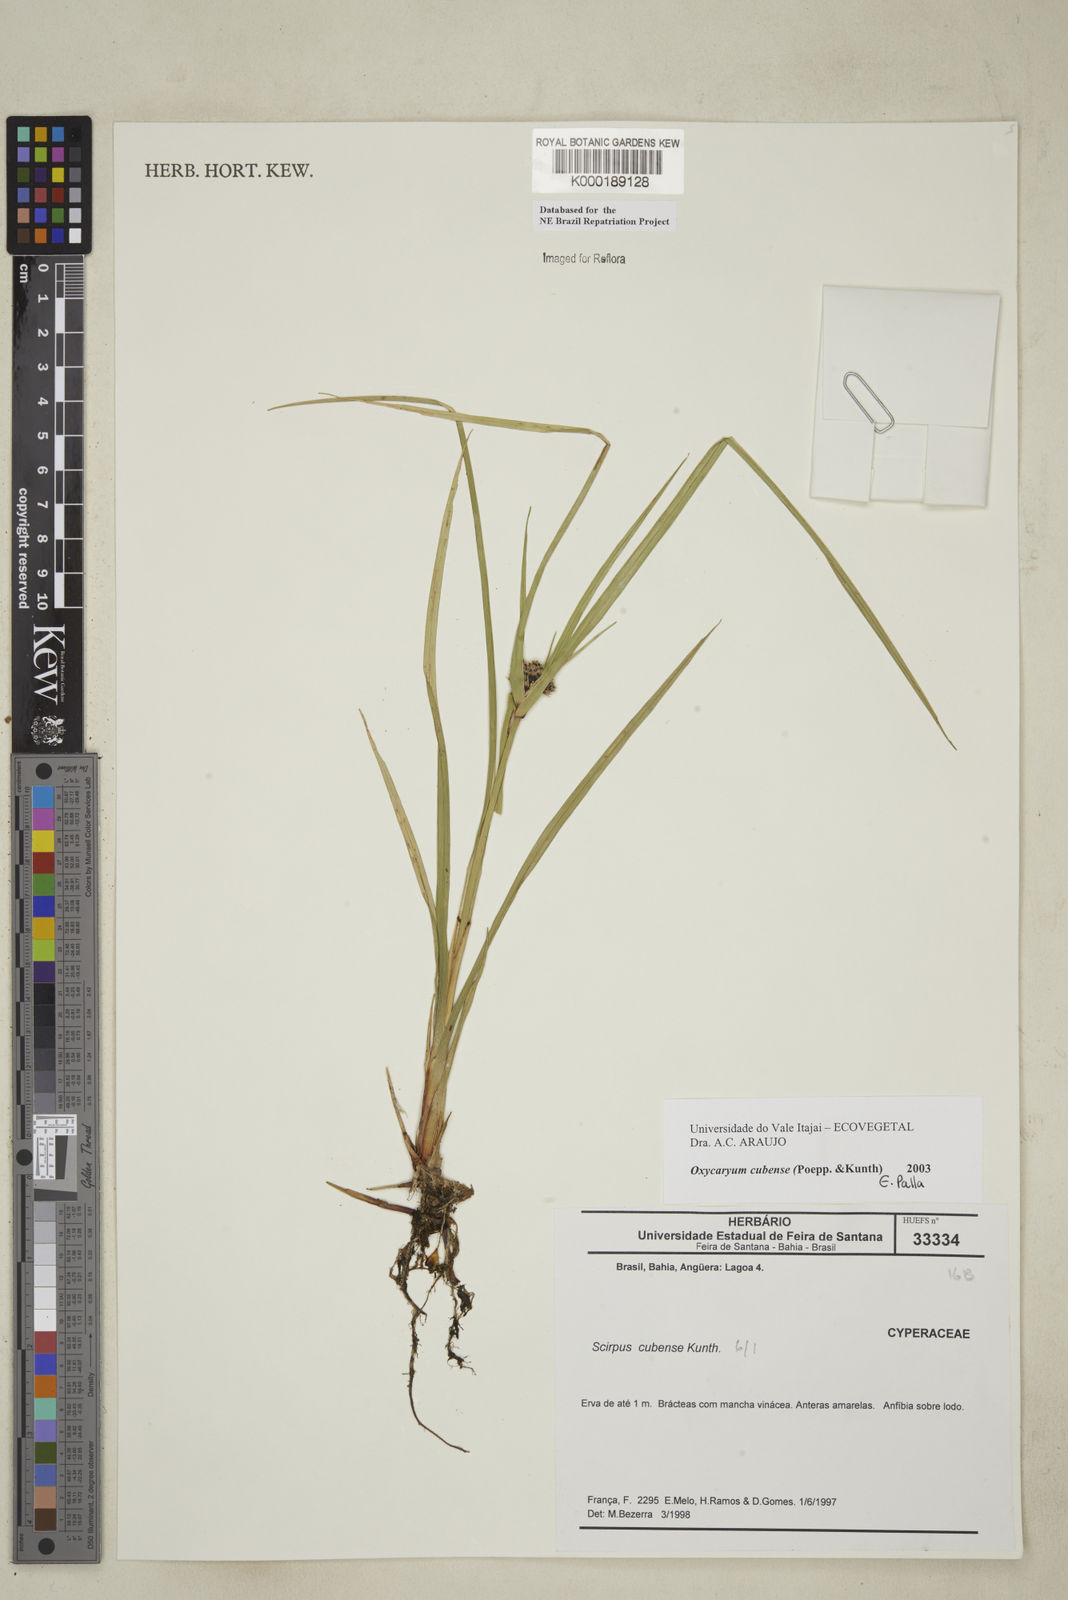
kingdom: Plantae
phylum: Tracheophyta
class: Liliopsida
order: Poales
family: Cyperaceae
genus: Cyperus
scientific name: Cyperus blepharoleptos
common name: Cuban bulrush
